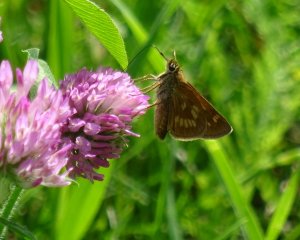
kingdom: Animalia
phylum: Arthropoda
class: Insecta
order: Lepidoptera
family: Hesperiidae
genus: Polites
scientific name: Polites
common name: Long Dash Skipper
